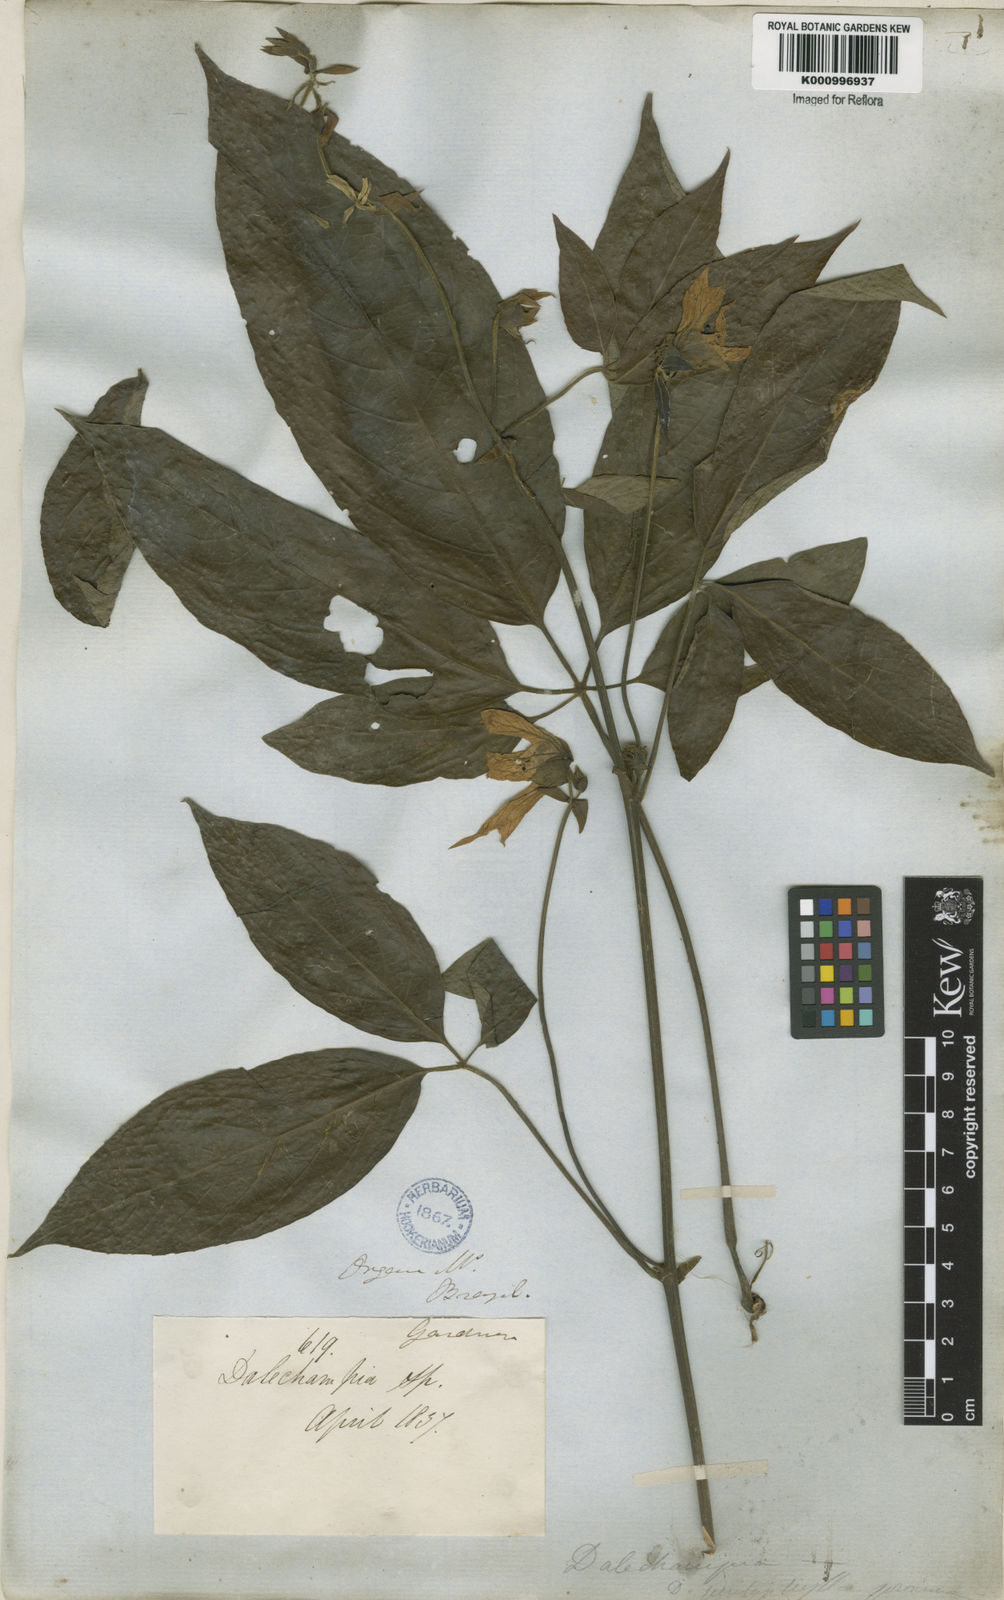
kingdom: Plantae
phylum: Tracheophyta
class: Magnoliopsida
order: Malpighiales
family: Euphorbiaceae
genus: Dalechampia
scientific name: Dalechampia pentaphylla
